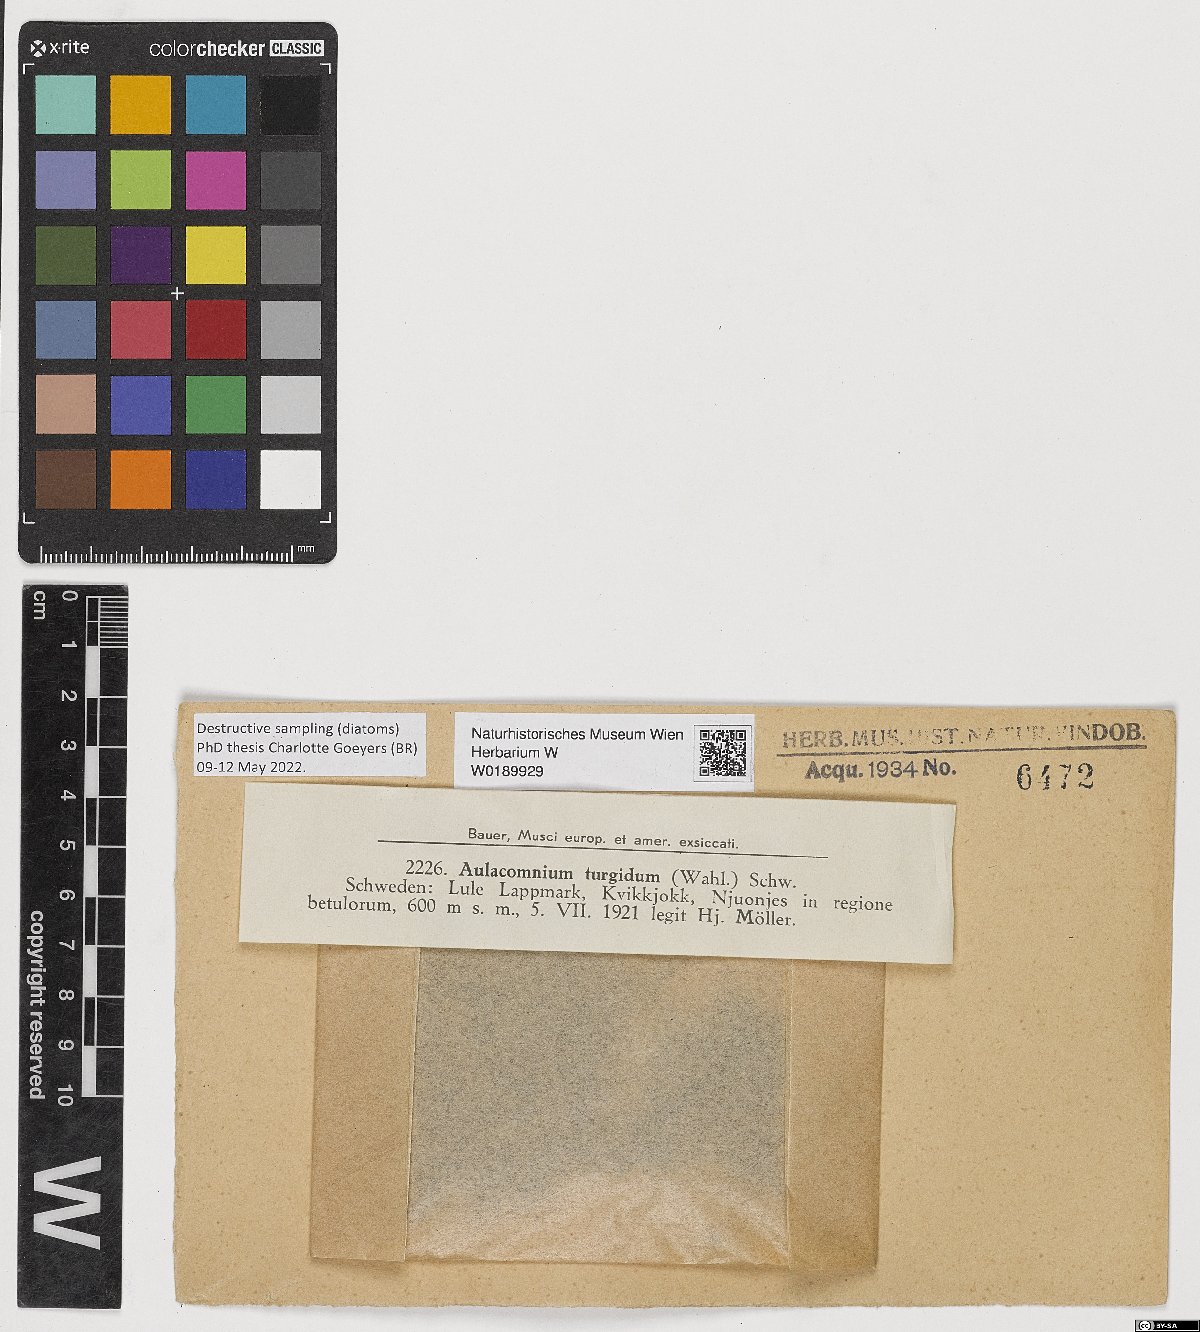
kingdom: Plantae
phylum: Bryophyta
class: Bryopsida
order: Aulacomniales
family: Aulacomniaceae
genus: Aulacomnium
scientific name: Aulacomnium turgidum
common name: Mountain groove moss
